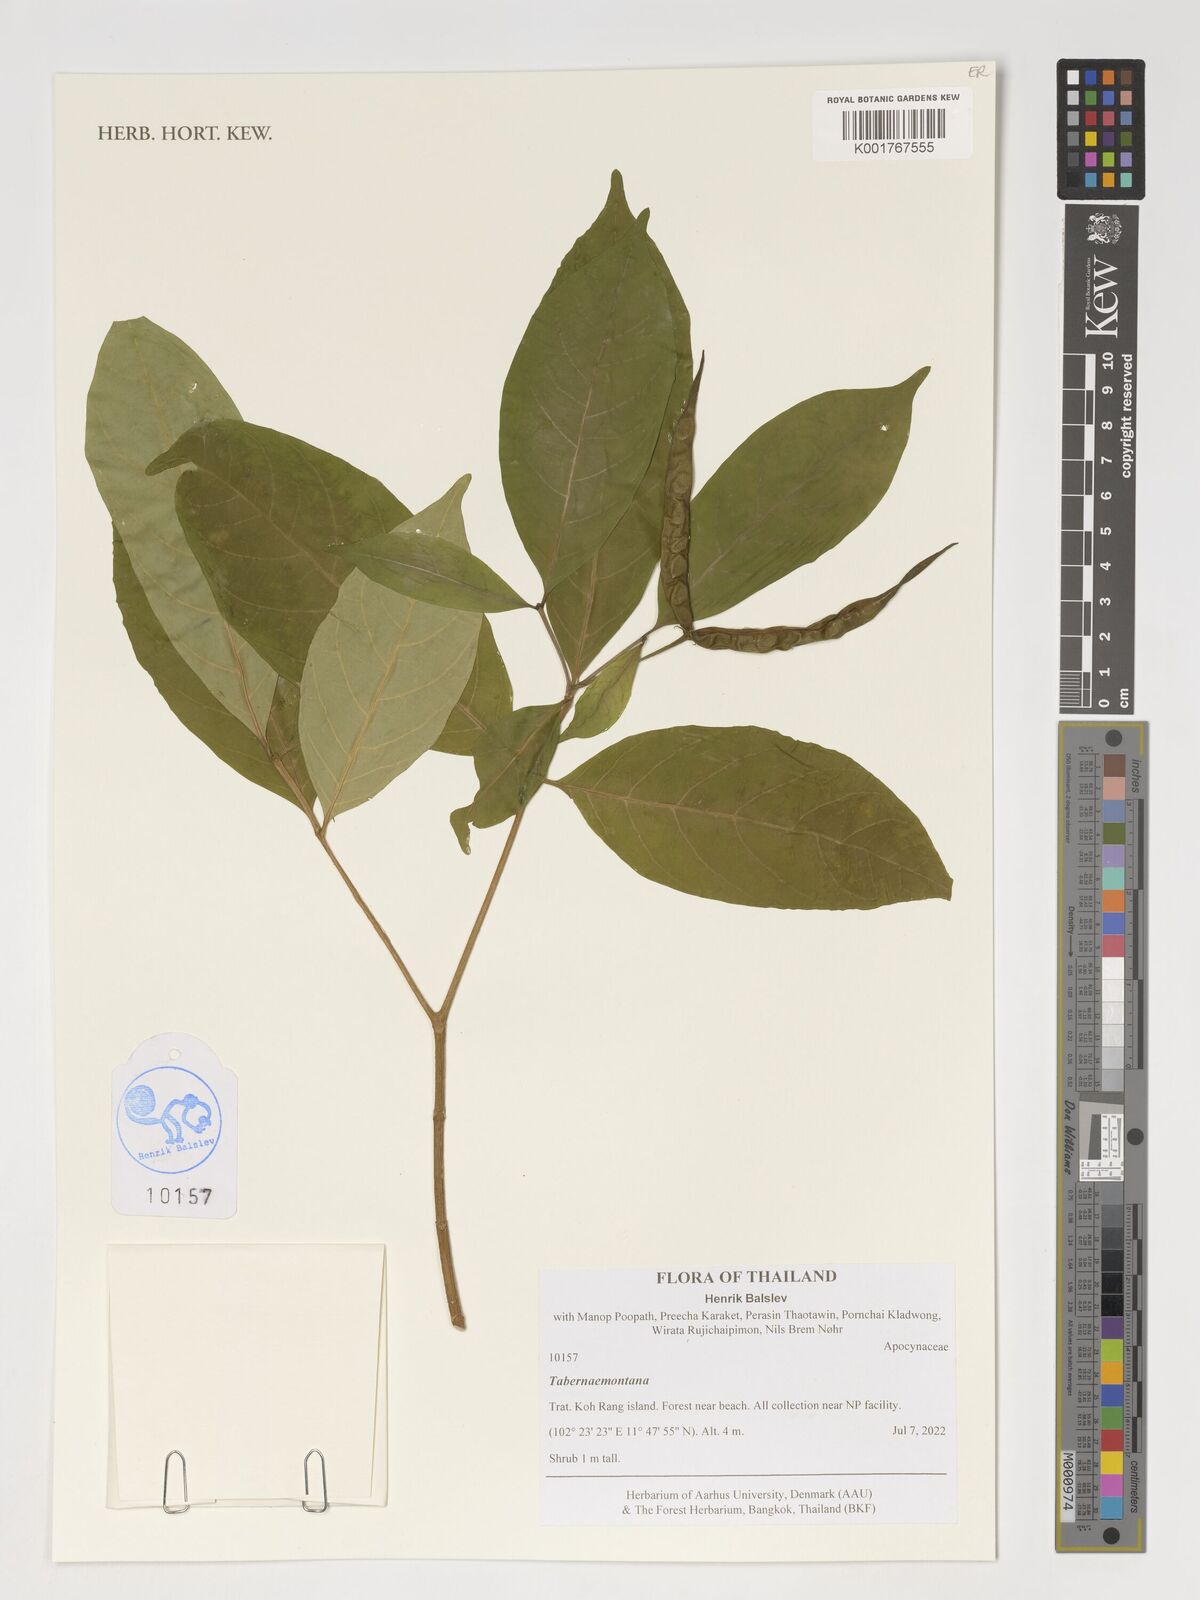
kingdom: Plantae
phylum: Tracheophyta
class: Magnoliopsida
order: Gentianales
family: Apocynaceae
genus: Tabernaemontana
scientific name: Tabernaemontana
